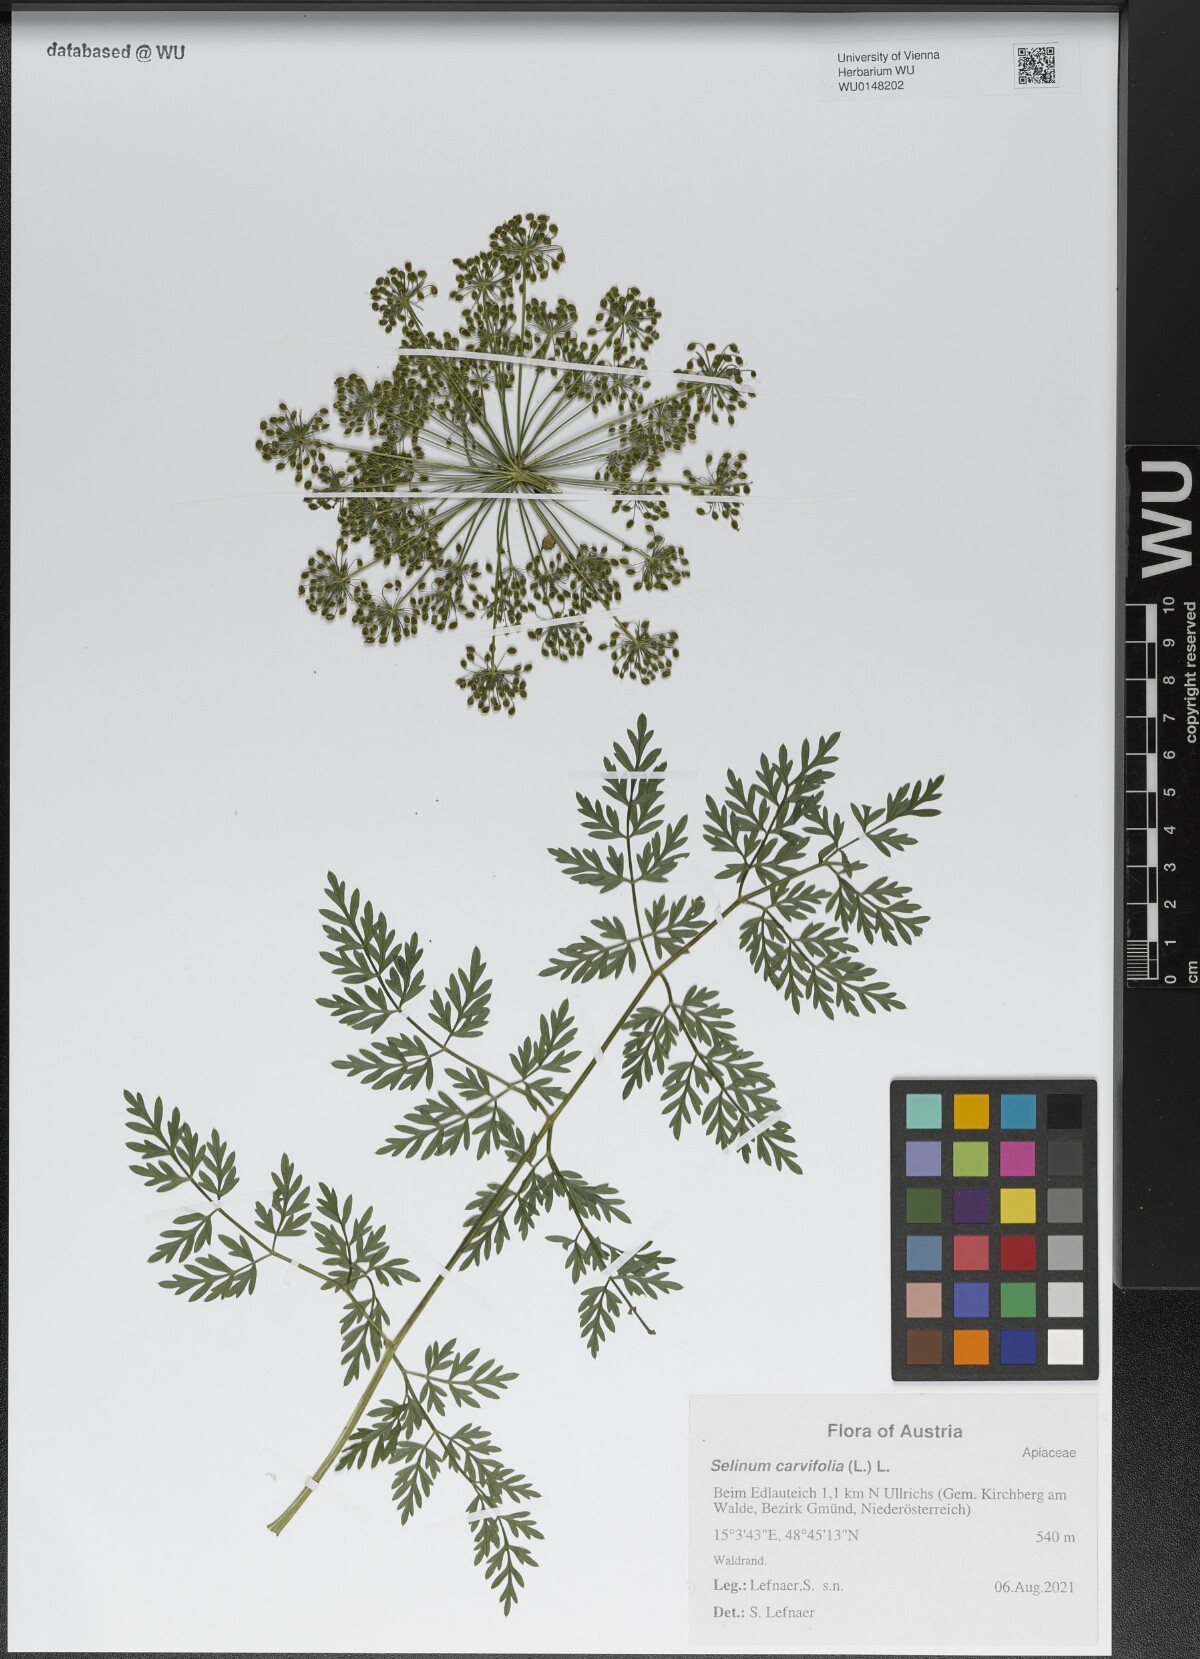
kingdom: Plantae
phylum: Tracheophyta
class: Magnoliopsida
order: Apiales
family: Apiaceae
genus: Selinum
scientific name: Selinum carvifolia
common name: Cambridge milk-parsley
